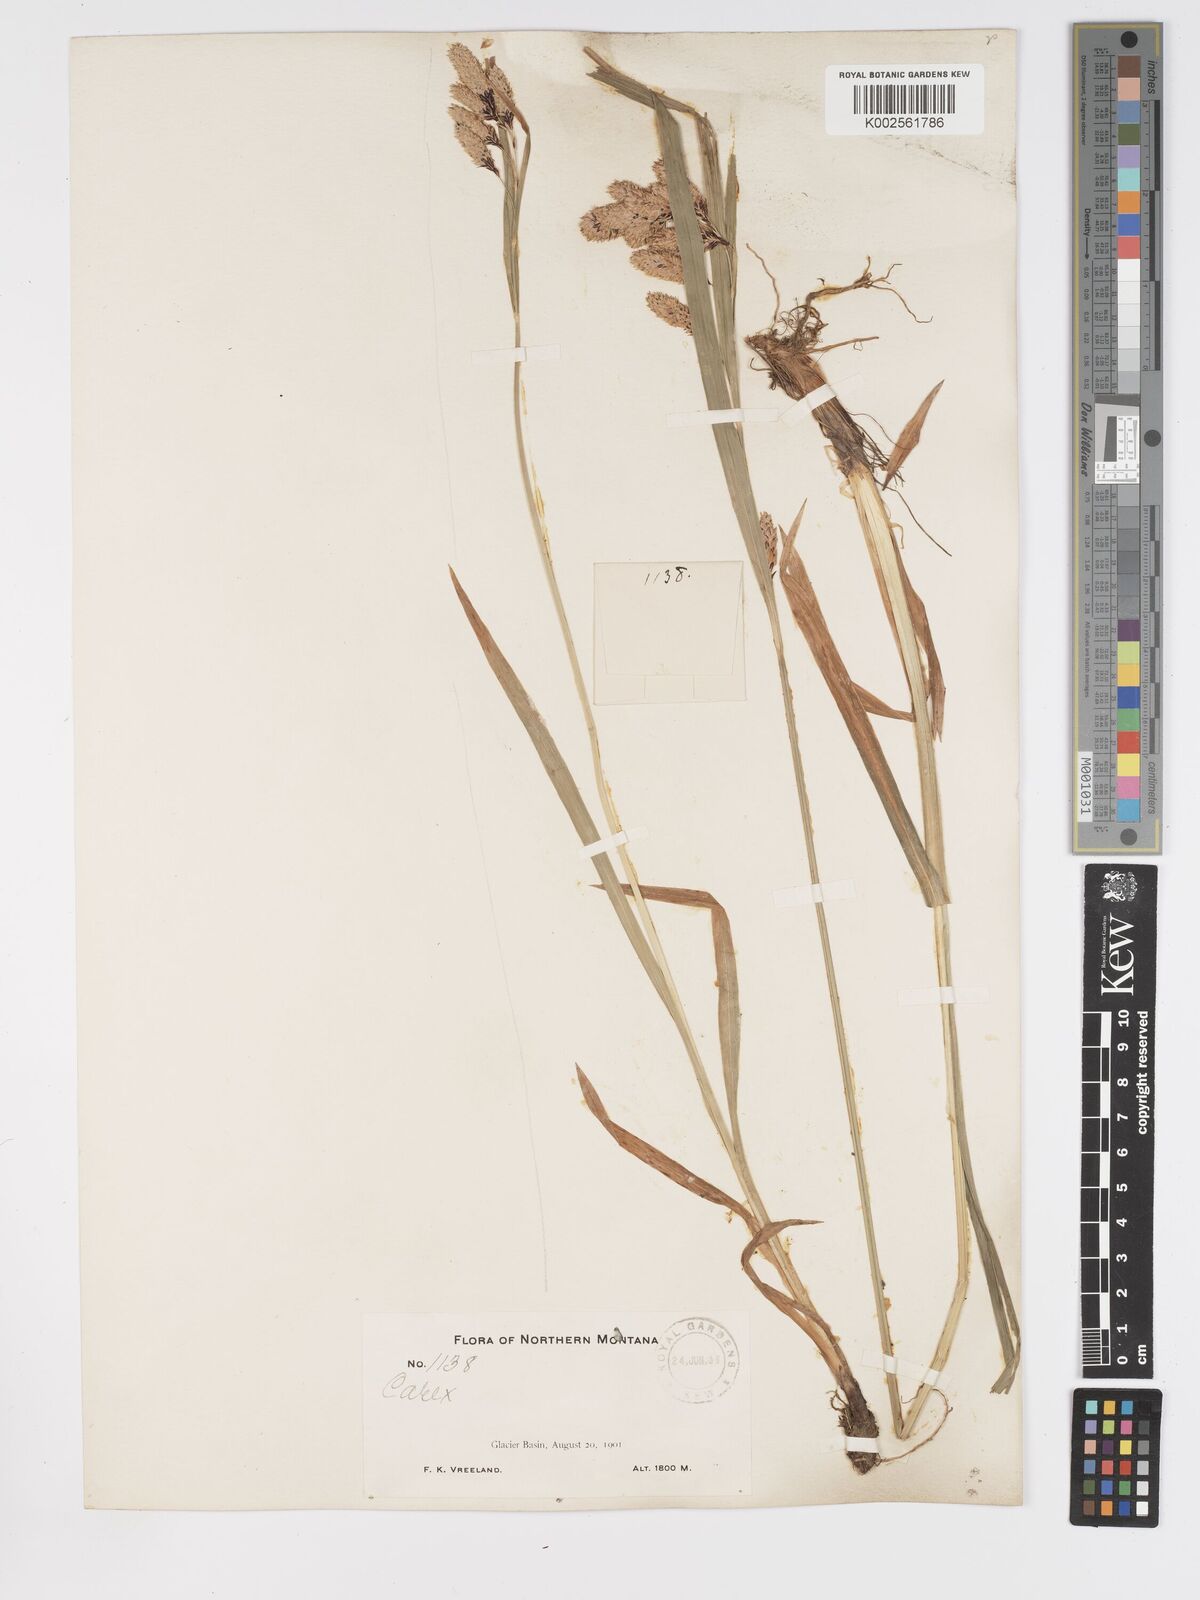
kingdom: Plantae
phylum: Tracheophyta
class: Liliopsida
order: Poales
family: Cyperaceae
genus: Carex
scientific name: Carex mertensii
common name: Mertens' sedge
